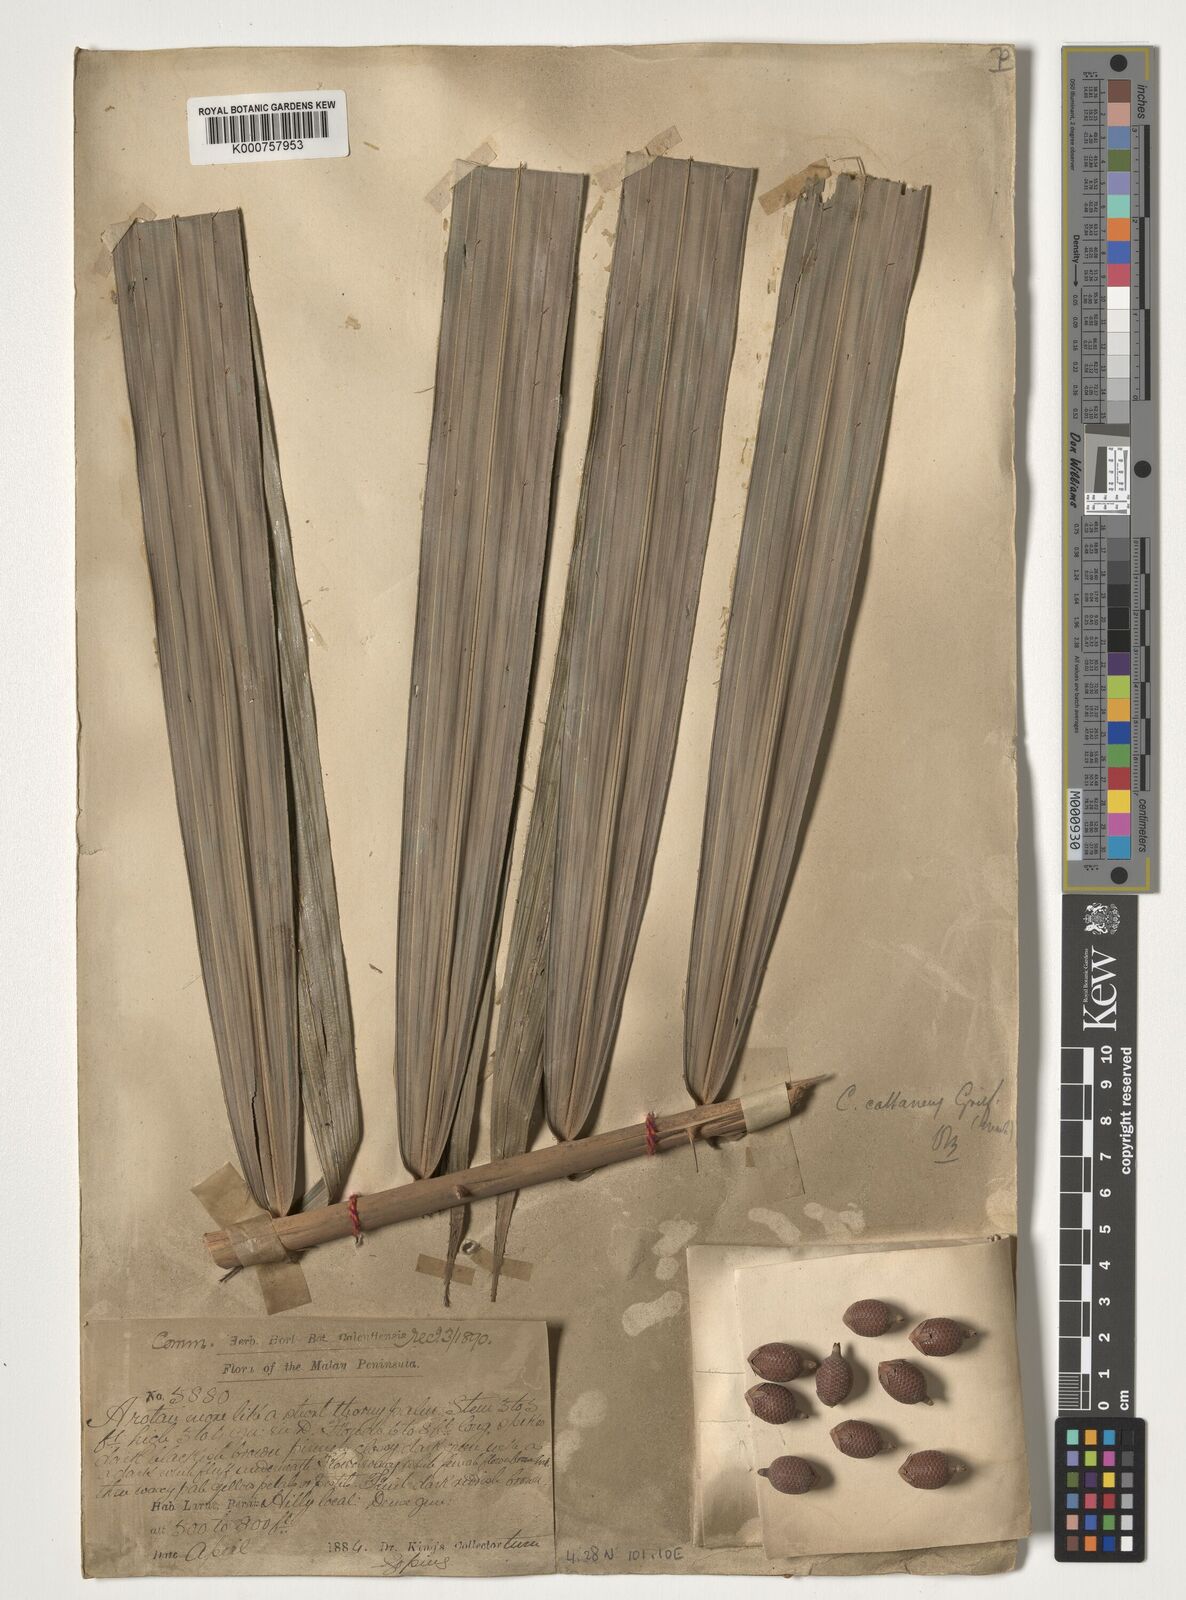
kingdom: Plantae
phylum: Tracheophyta
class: Liliopsida
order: Arecales
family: Arecaceae
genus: Calamus
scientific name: Calamus castaneus
